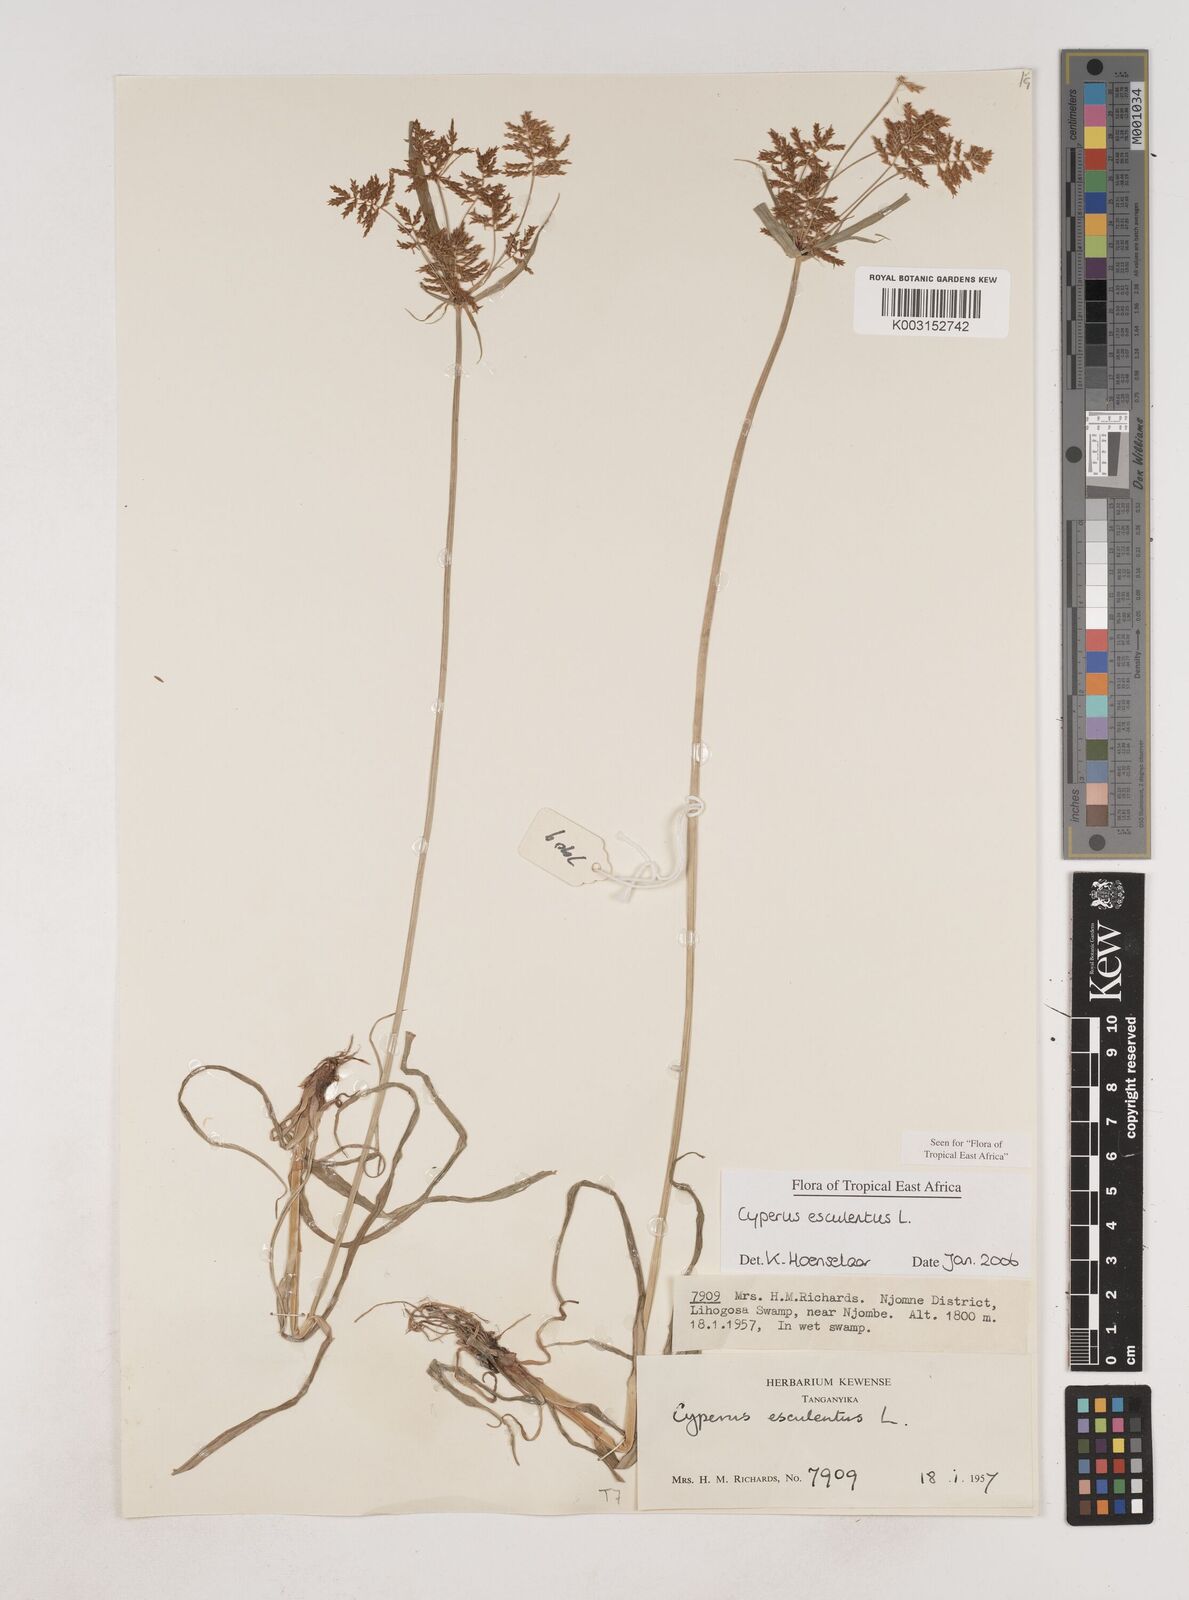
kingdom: Plantae
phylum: Tracheophyta
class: Liliopsida
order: Poales
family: Cyperaceae
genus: Cyperus
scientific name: Cyperus esculentus
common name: Yellow nutsedge
